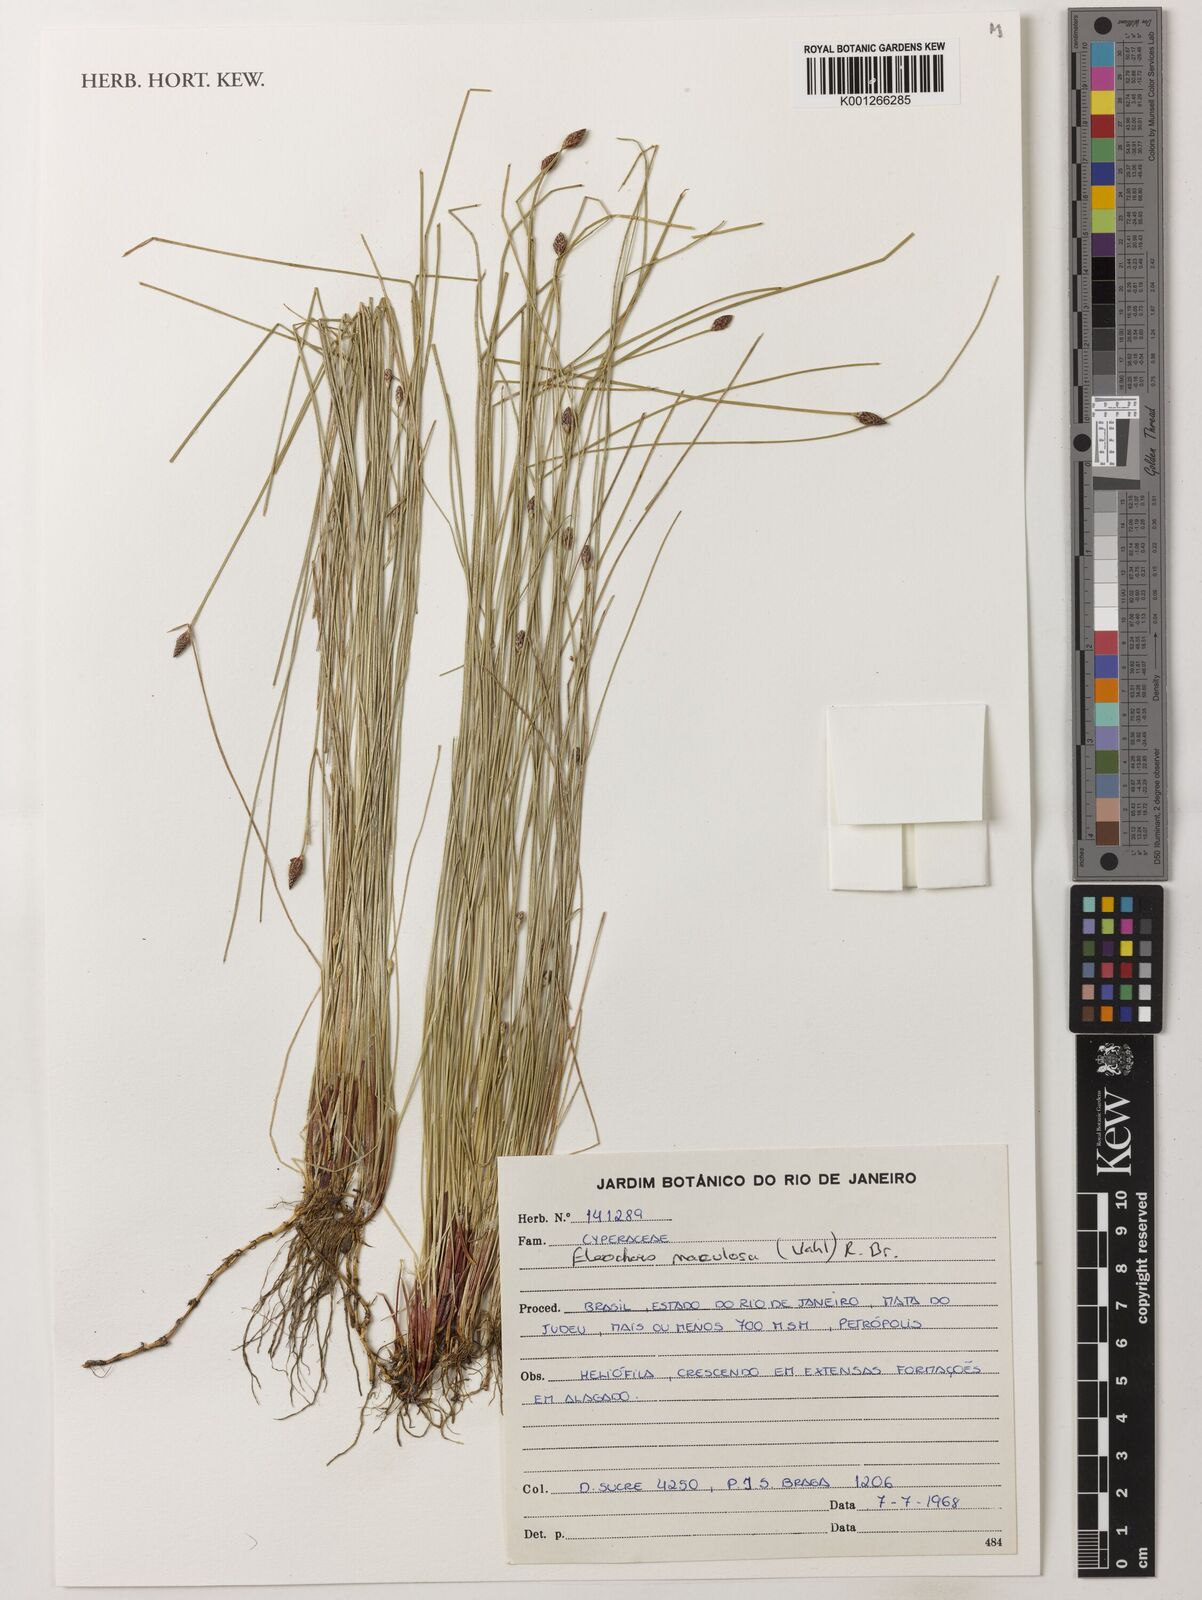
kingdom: Plantae
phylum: Tracheophyta
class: Liliopsida
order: Poales
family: Cyperaceae
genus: Eleocharis
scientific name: Eleocharis maculosa
